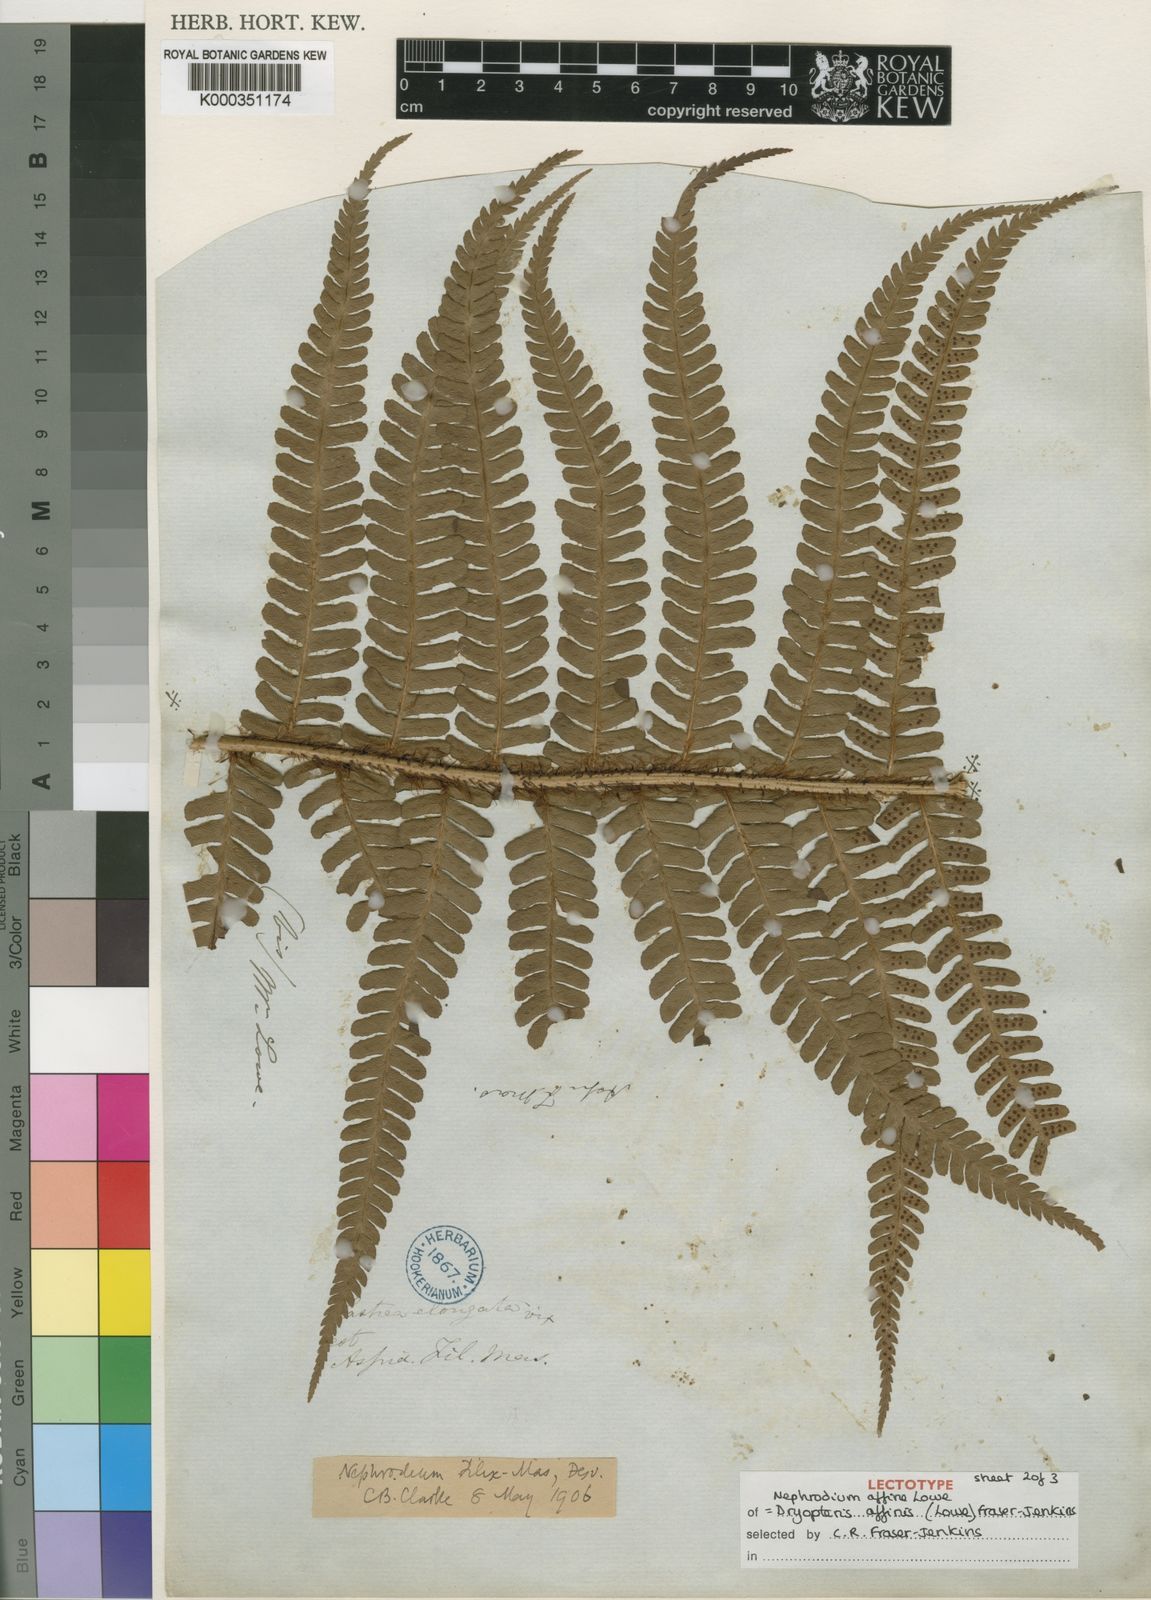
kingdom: Plantae
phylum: Tracheophyta
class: Polypodiopsida
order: Polypodiales
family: Dryopteridaceae
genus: Dryopteris
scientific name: Dryopteris affinis
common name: Scaly male fern
